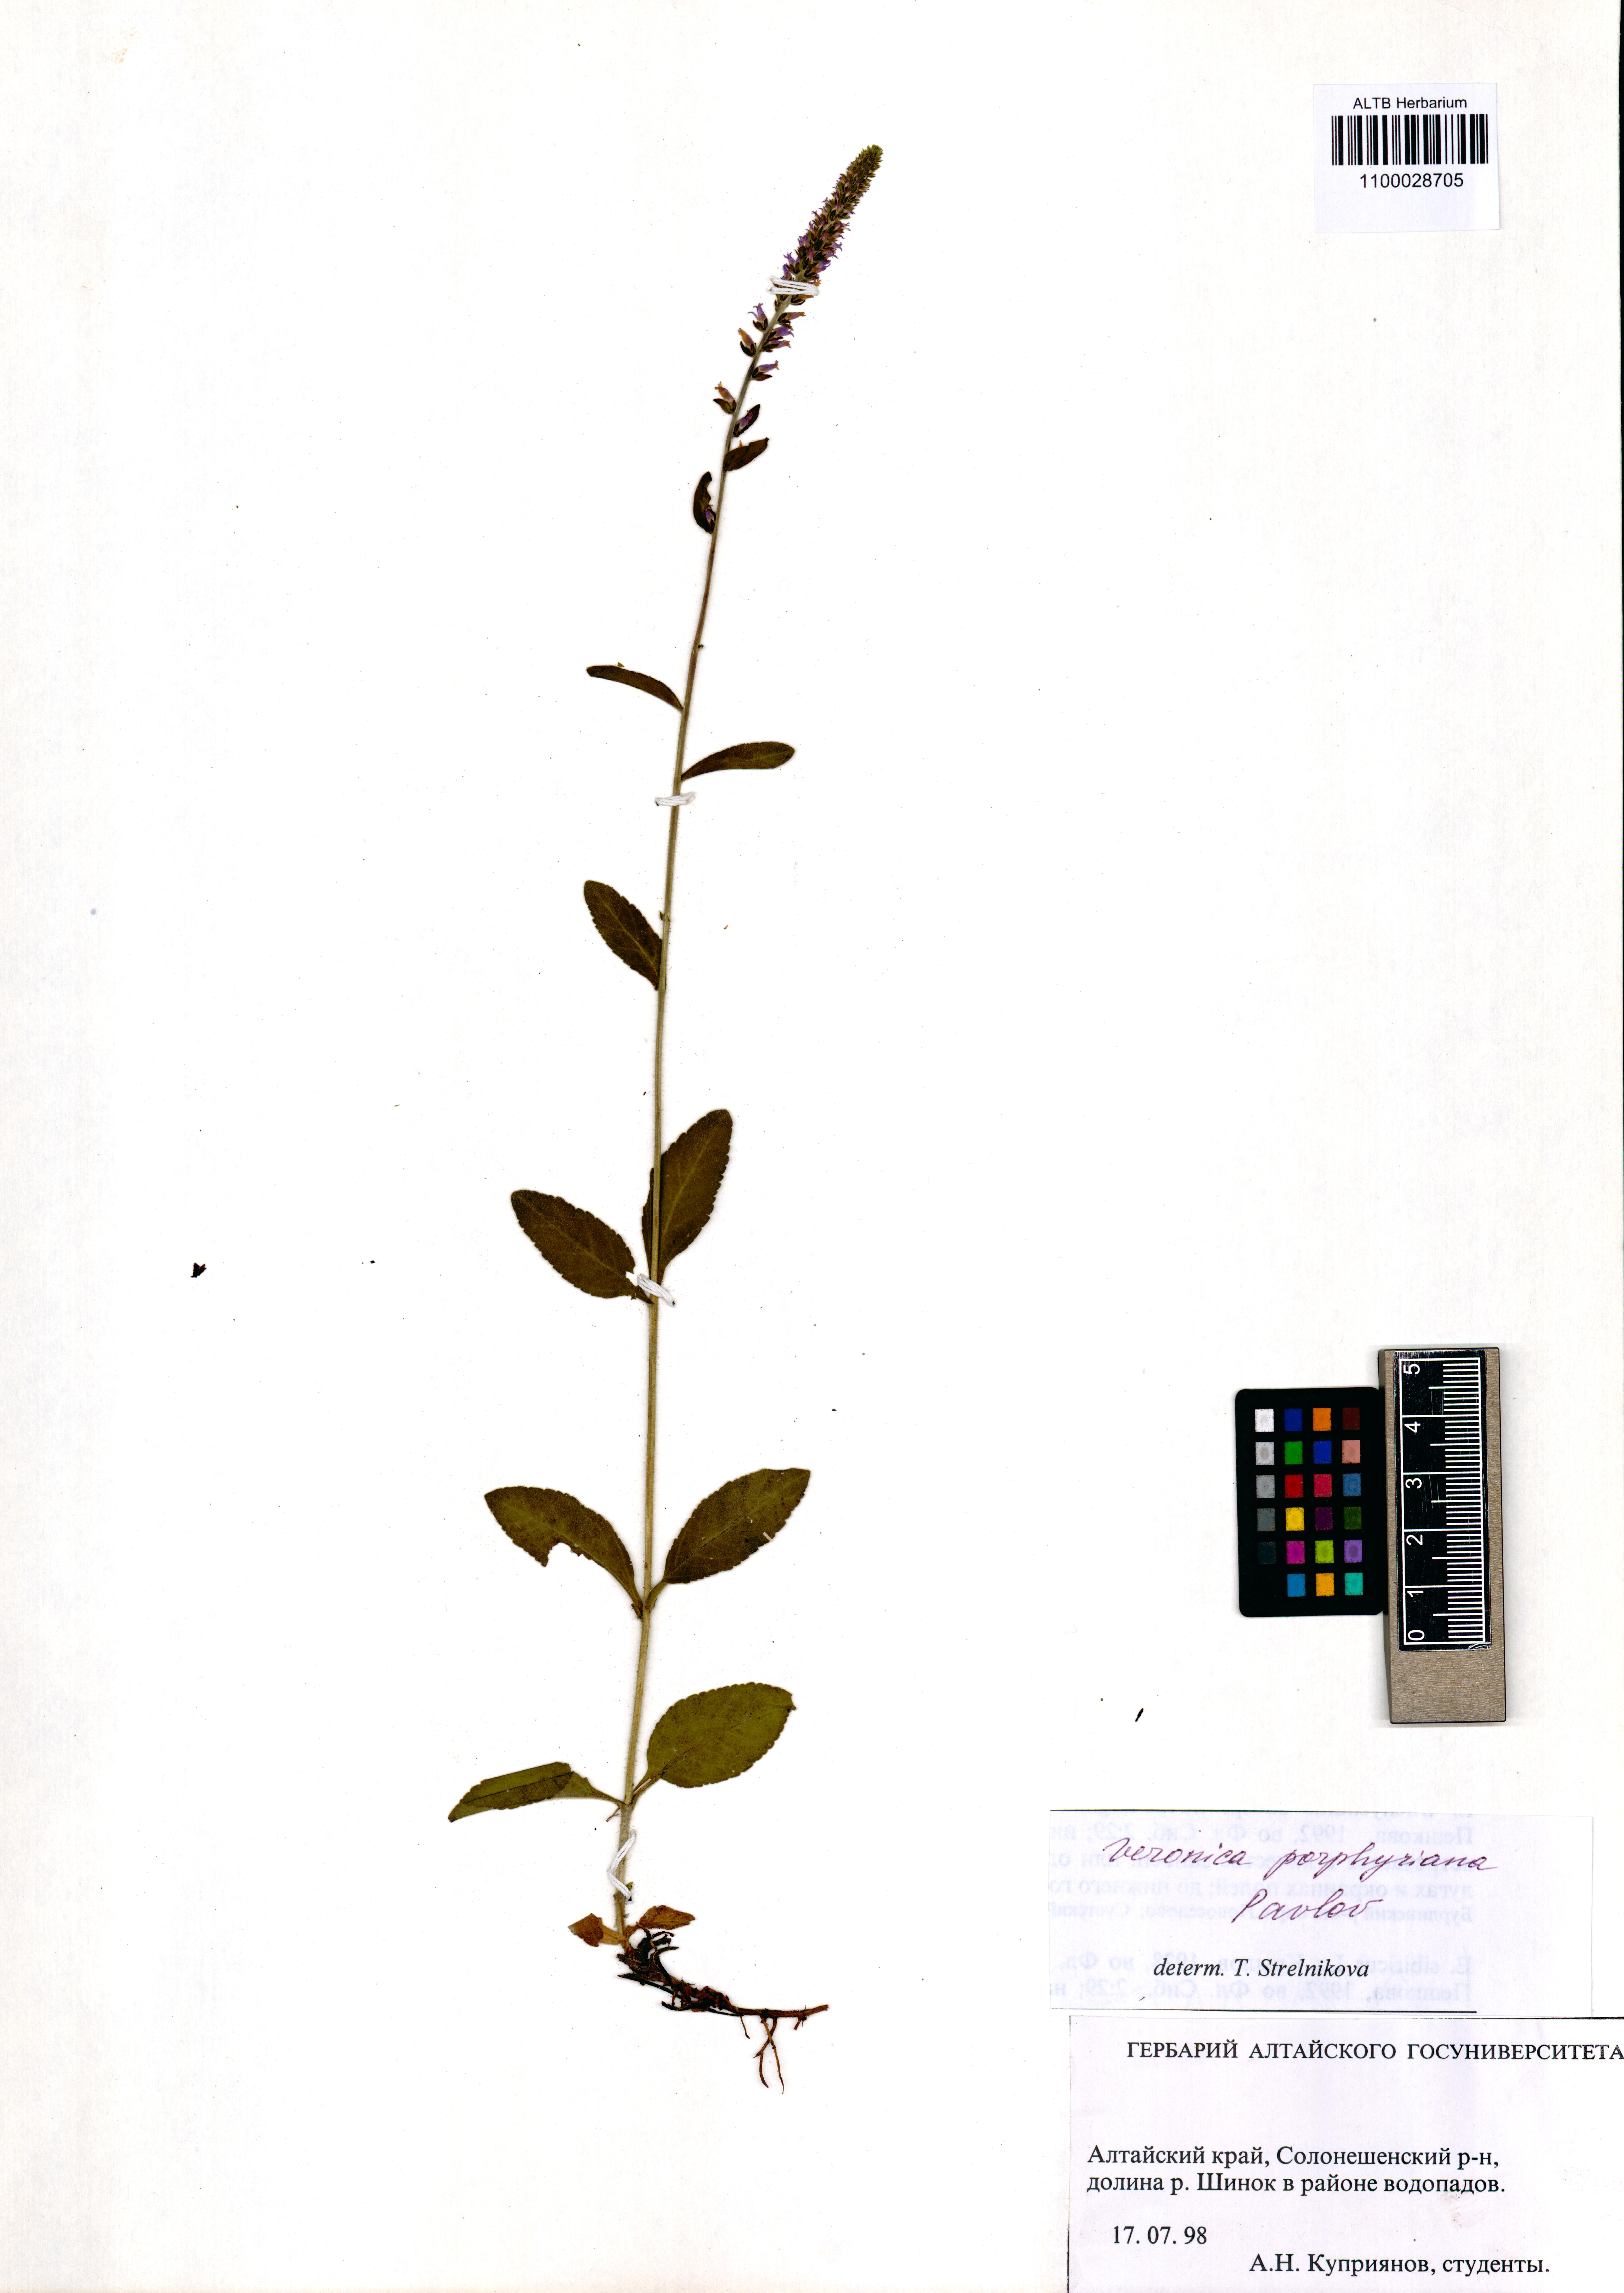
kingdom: Plantae
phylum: Tracheophyta
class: Magnoliopsida
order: Lamiales
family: Plantaginaceae
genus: Veronica
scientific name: Veronica porphyriana
